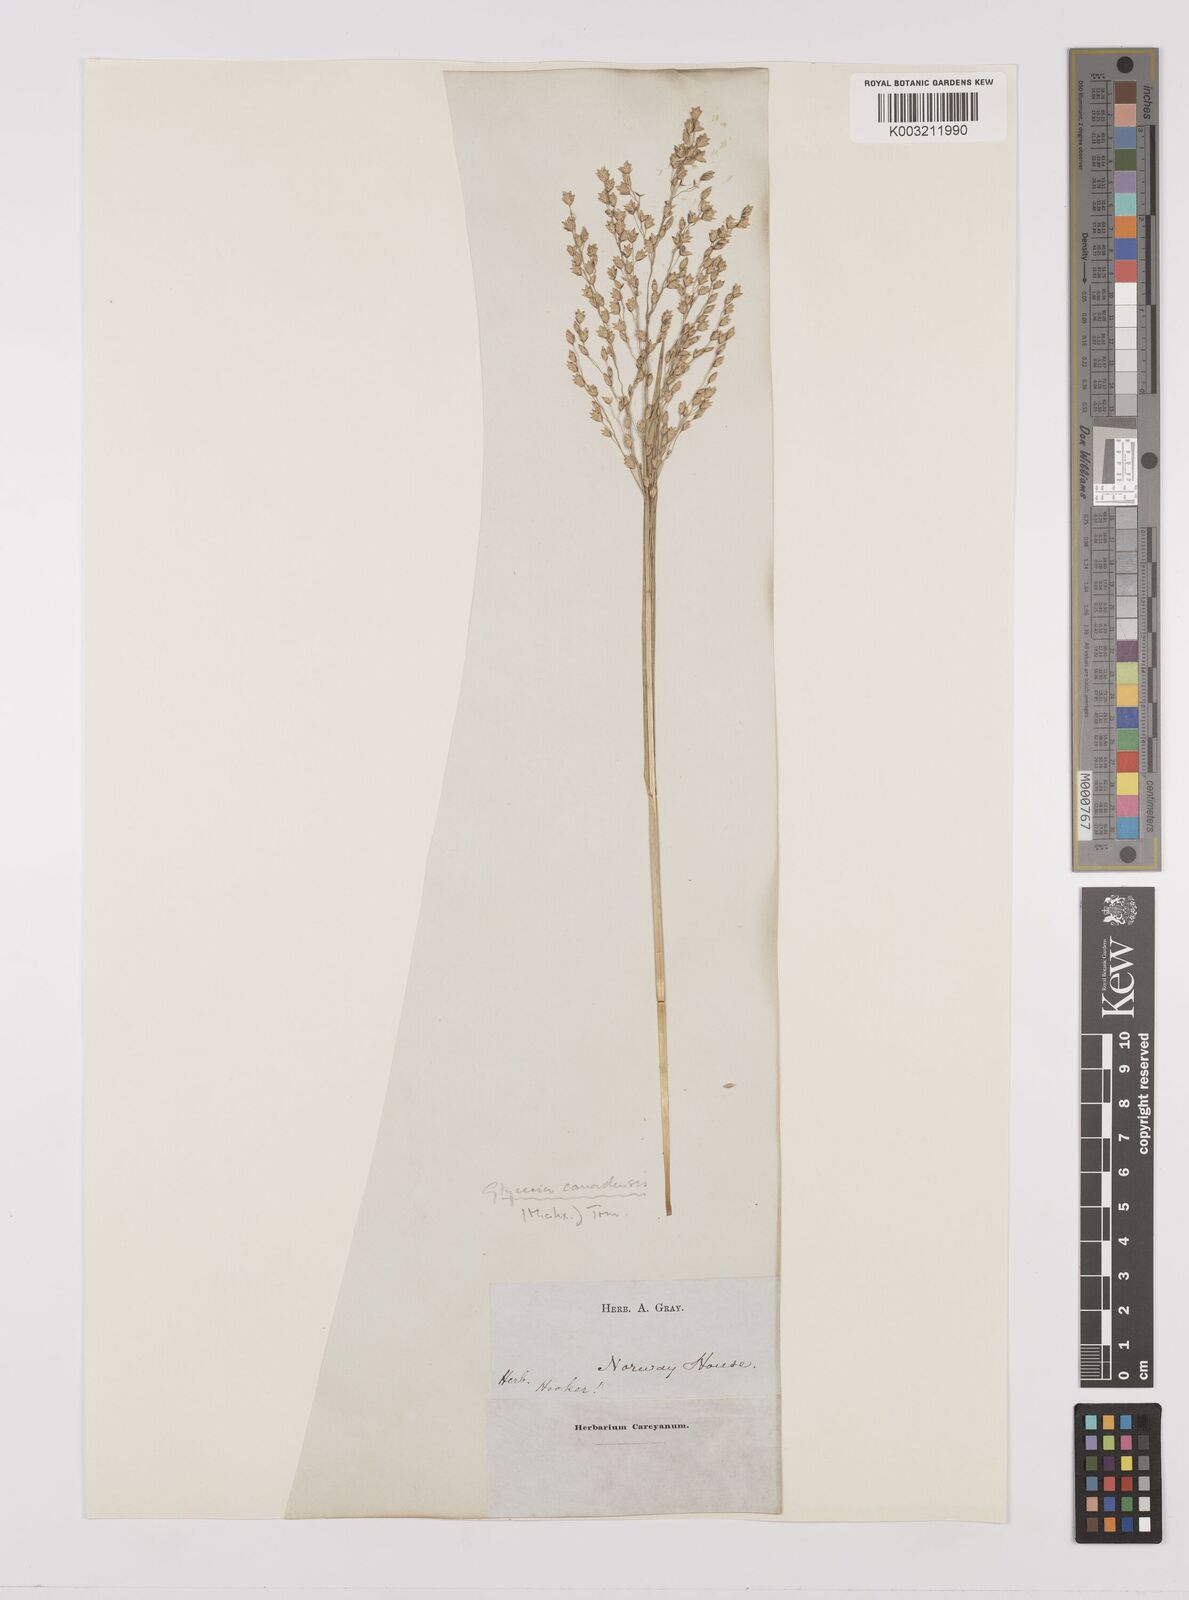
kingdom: Plantae
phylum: Tracheophyta
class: Liliopsida
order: Poales
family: Poaceae
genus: Glyceria
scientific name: Glyceria canadensis
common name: Canada mannagrass
